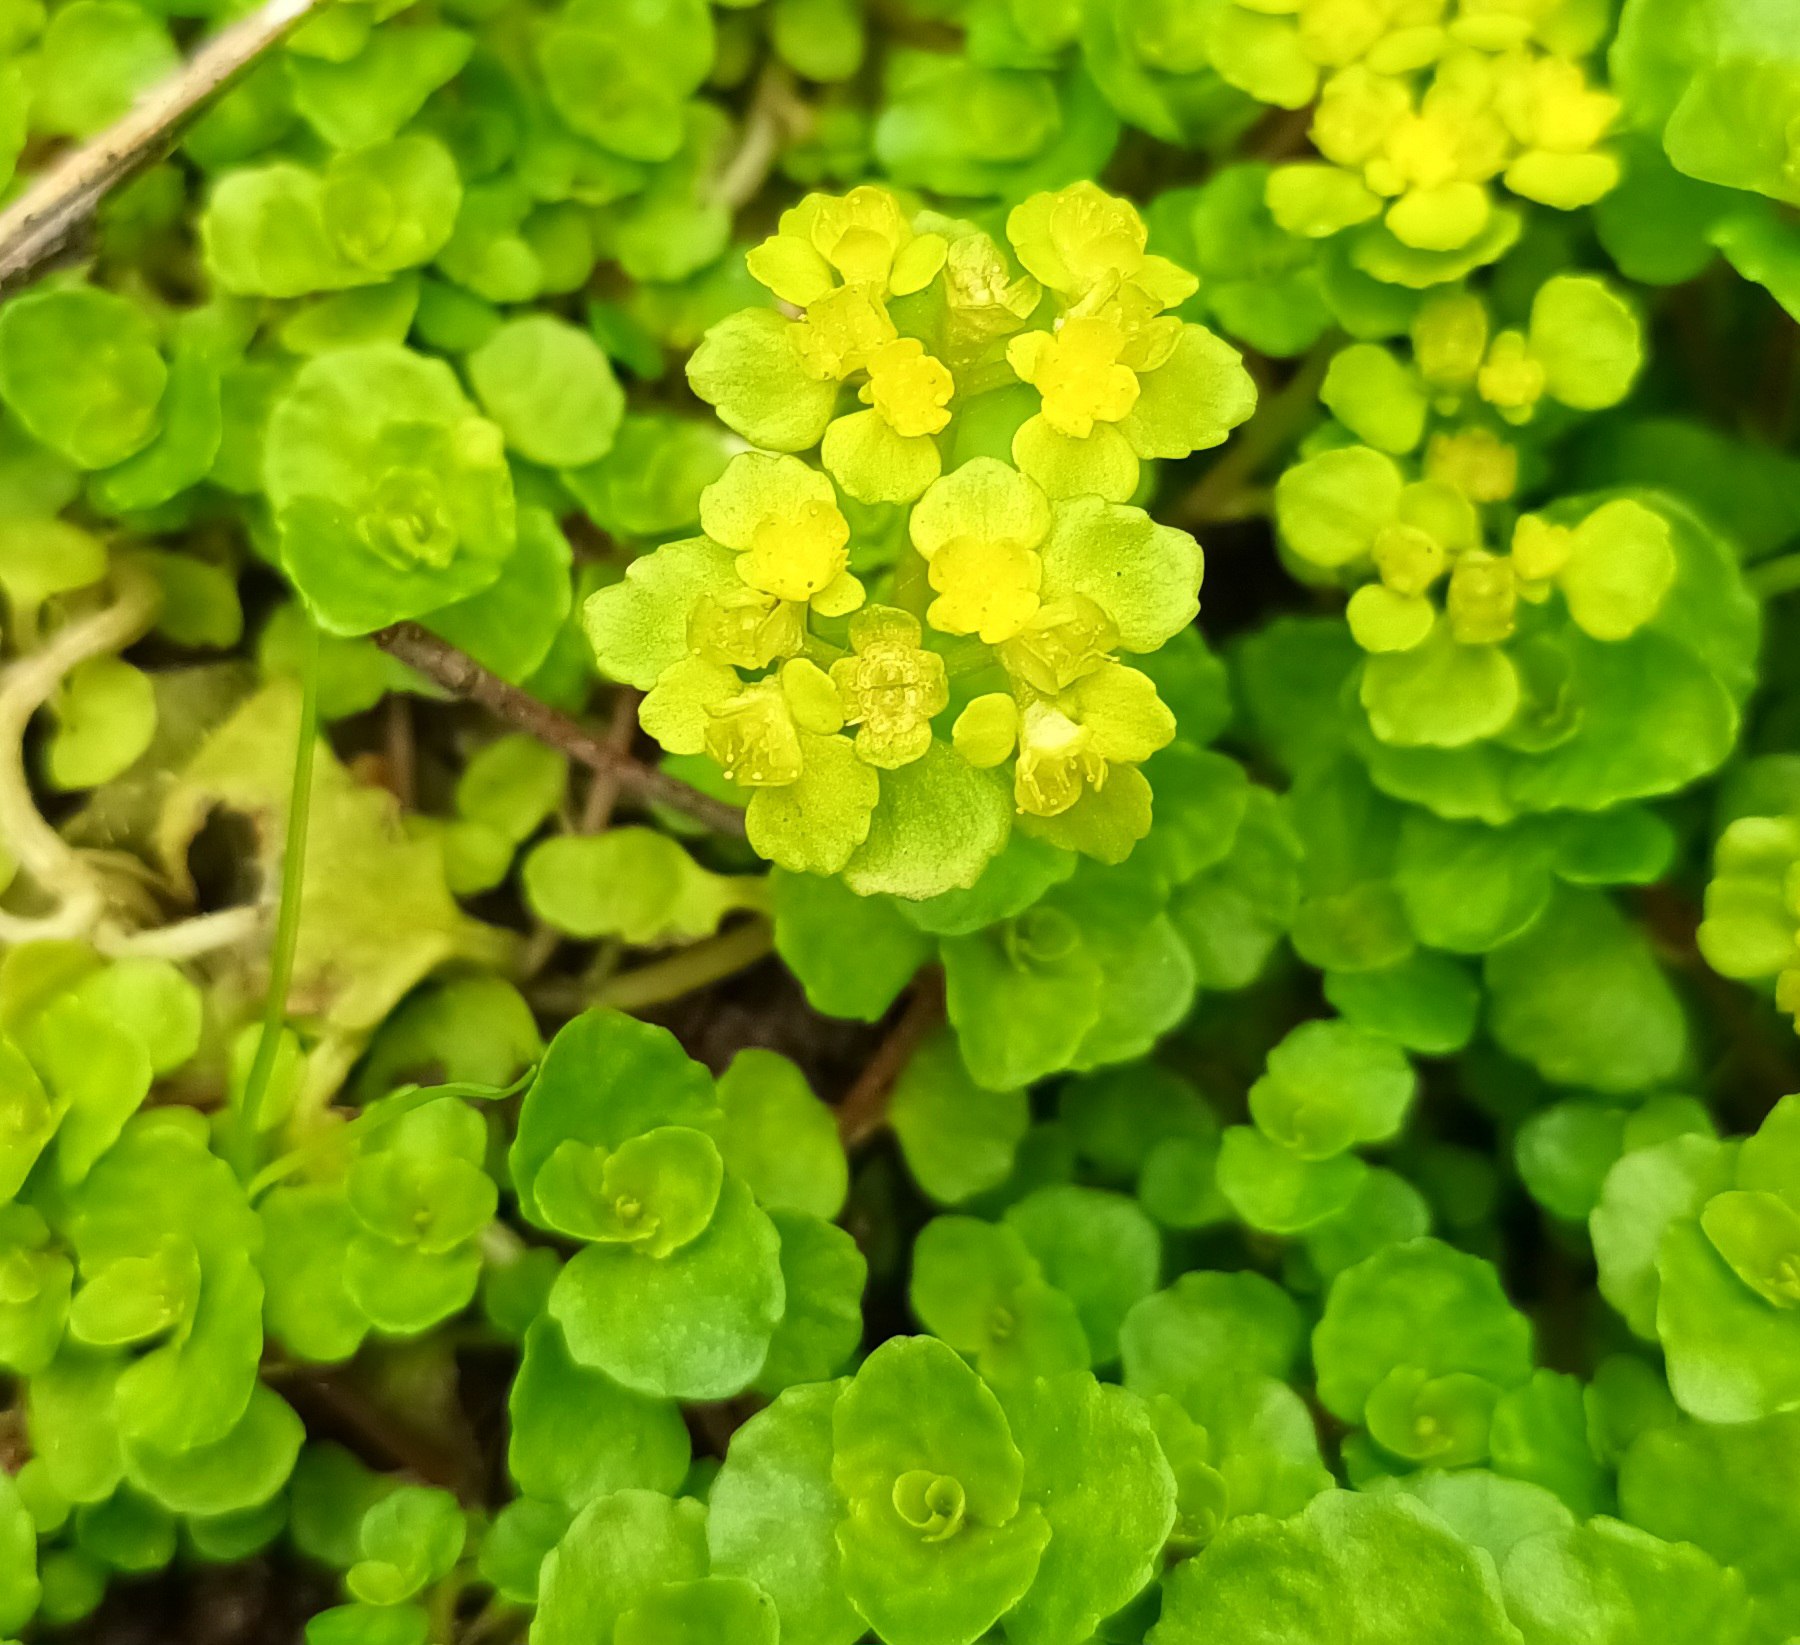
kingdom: Plantae
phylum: Tracheophyta
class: Magnoliopsida
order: Saxifragales
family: Saxifragaceae
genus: Chrysosplenium
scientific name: Chrysosplenium oppositifolium
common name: Småbladet milturt
